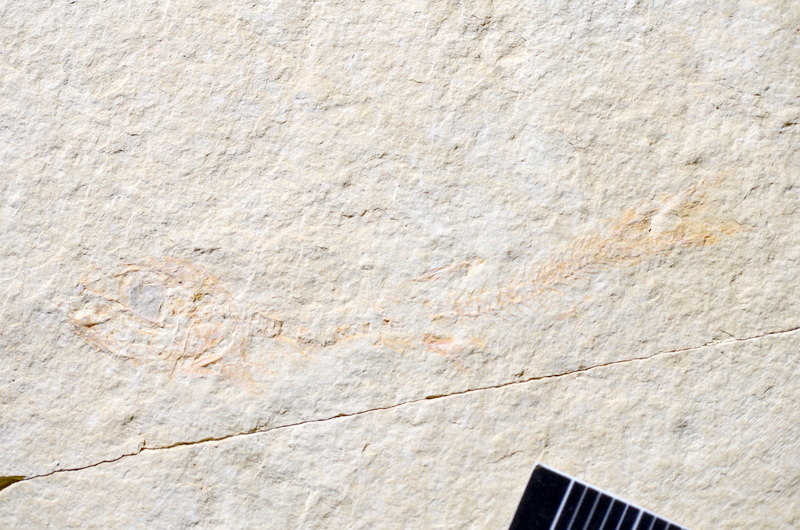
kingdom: Animalia
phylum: Chordata
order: Salmoniformes
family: Orthogonikleithridae
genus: Leptolepides
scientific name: Leptolepides
